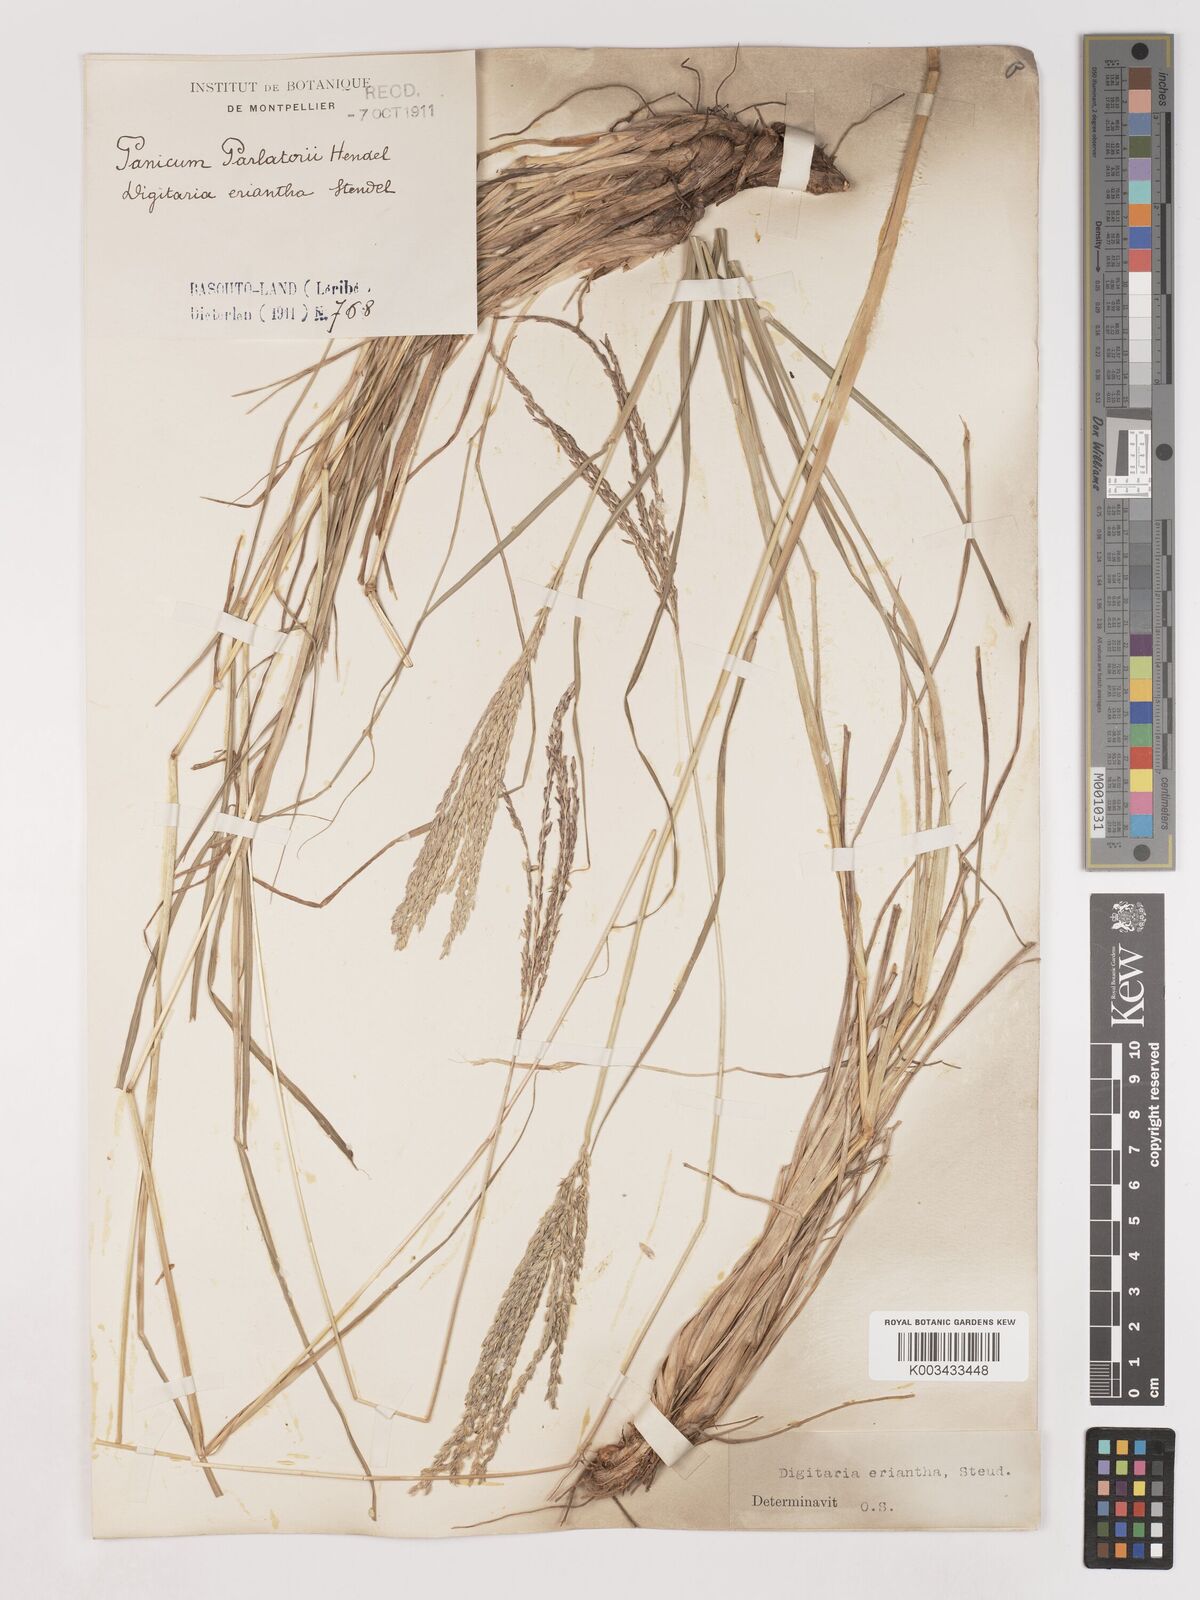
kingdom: Plantae
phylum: Tracheophyta
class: Liliopsida
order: Poales
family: Poaceae
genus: Digitaria
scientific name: Digitaria eriantha
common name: Digitgrass
